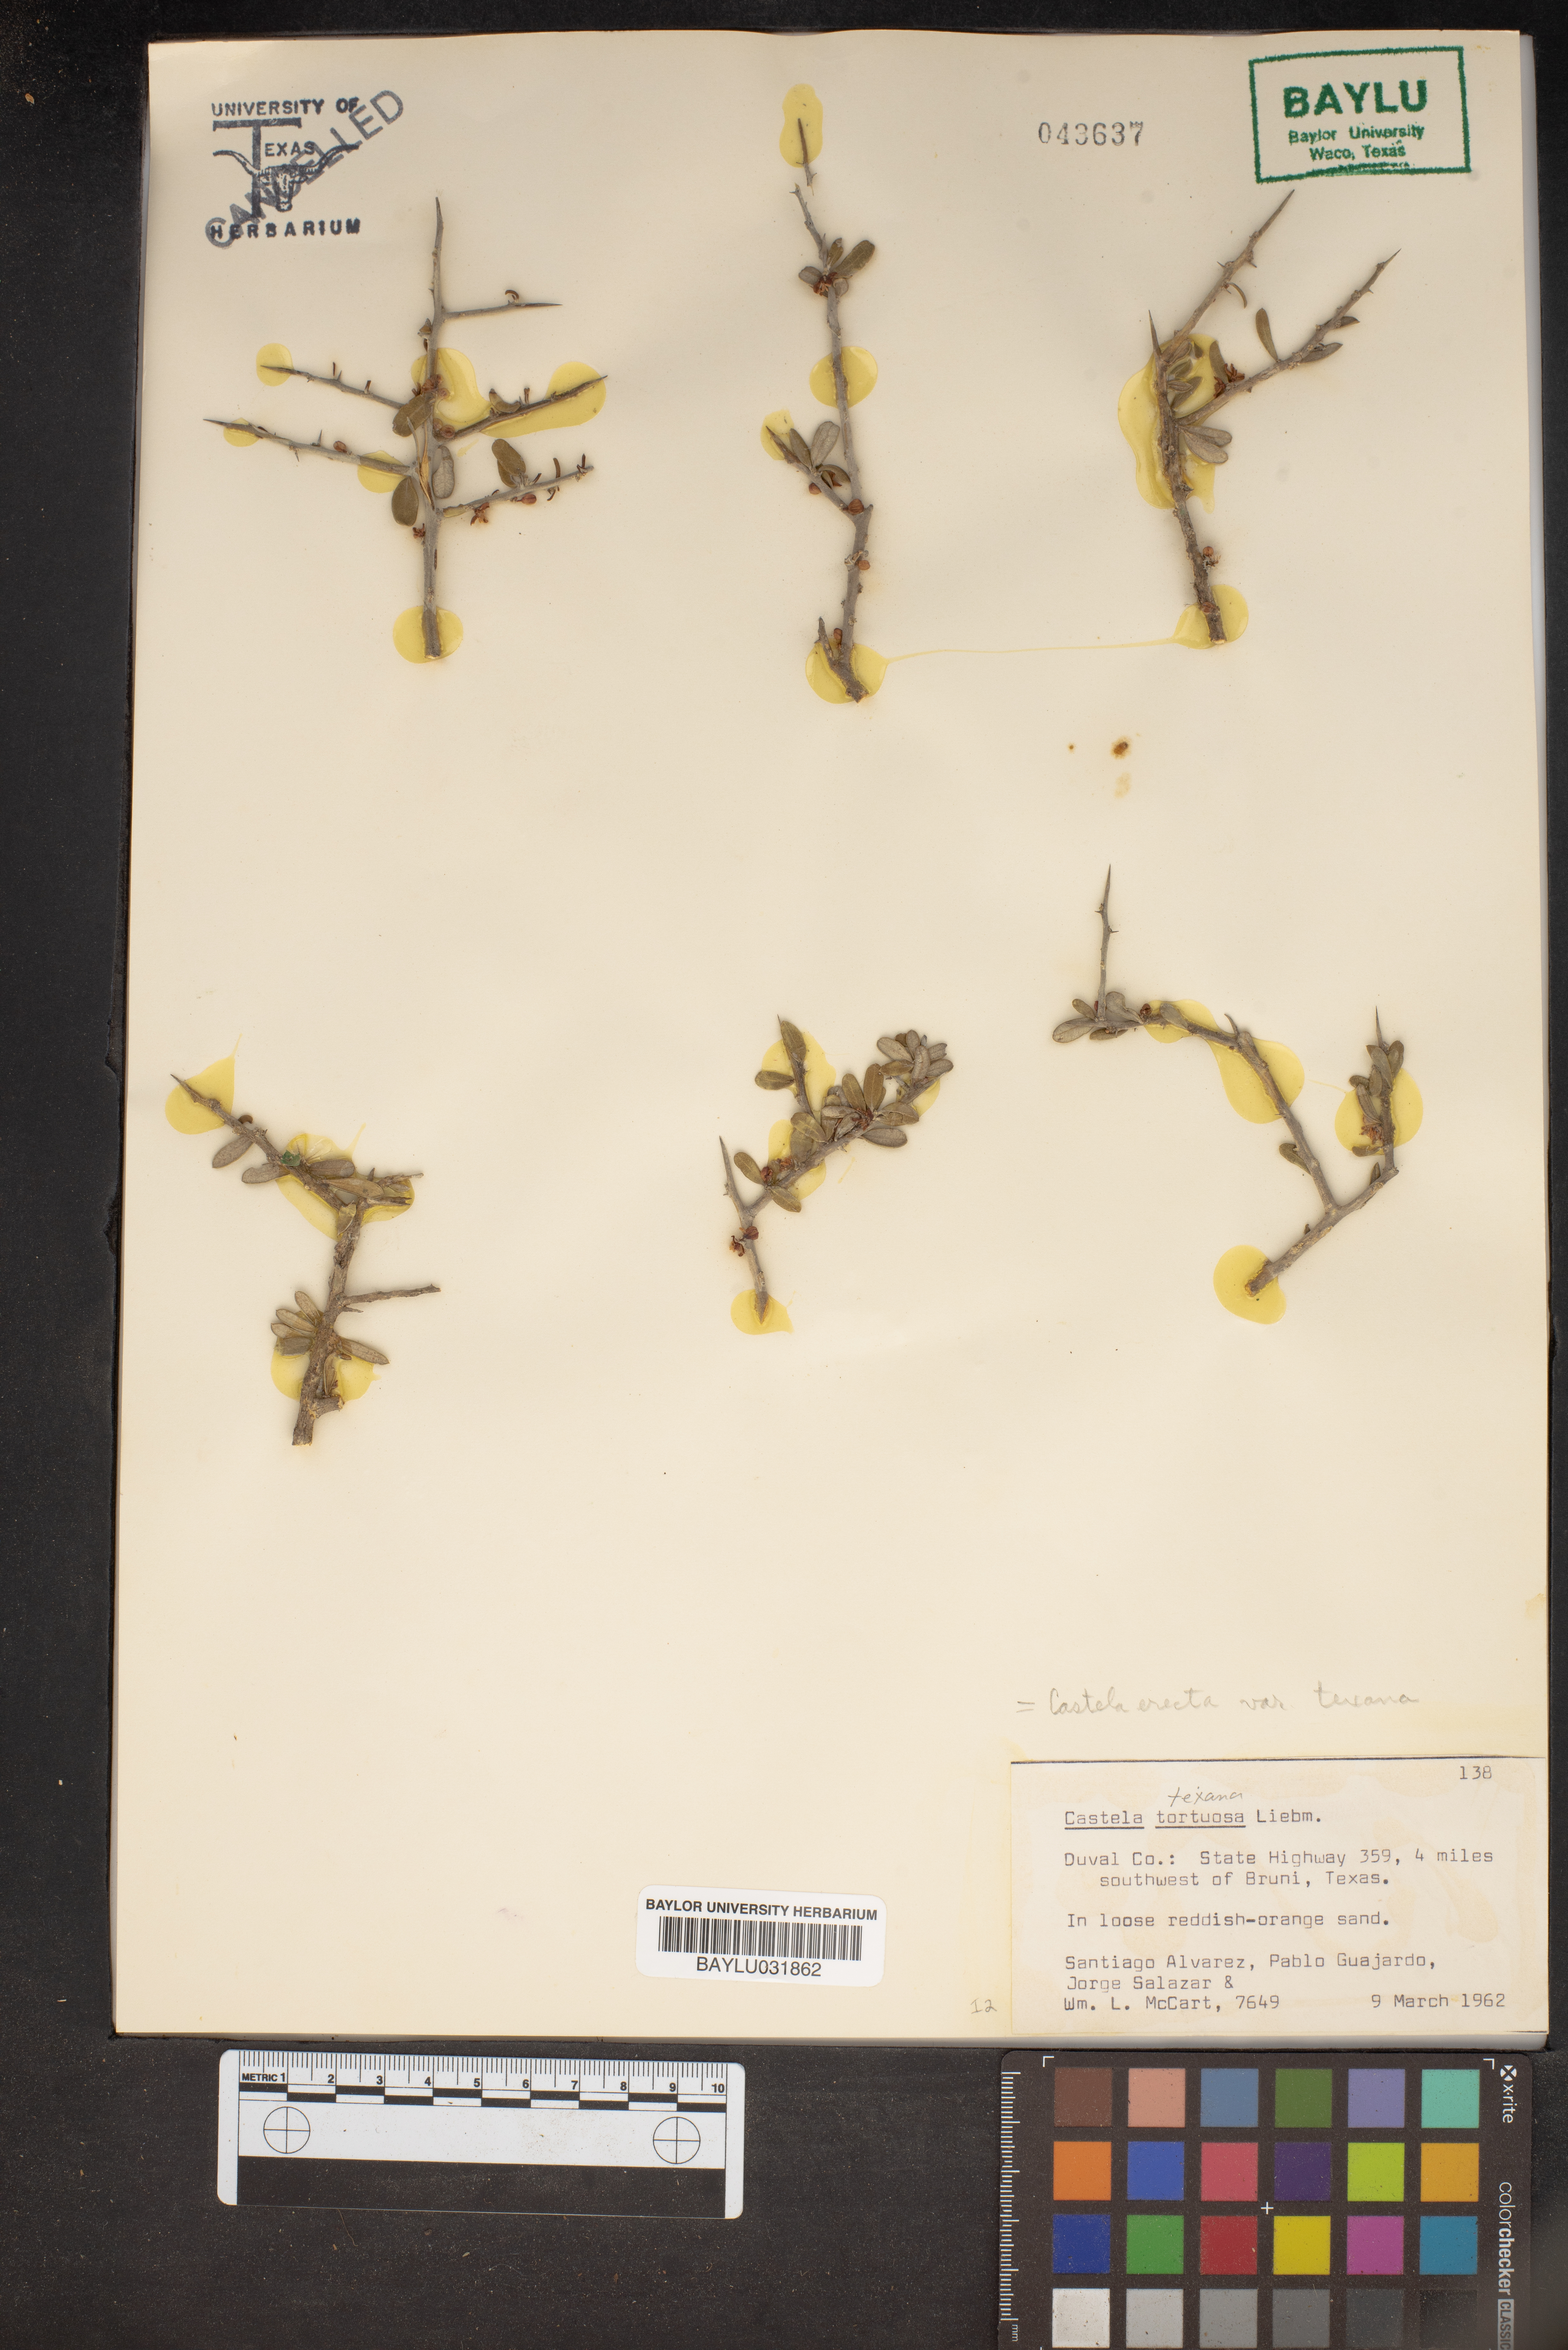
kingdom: Plantae
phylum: Tracheophyta
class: Magnoliopsida
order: Sapindales
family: Simaroubaceae
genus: Castela
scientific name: Castela tortuosa
